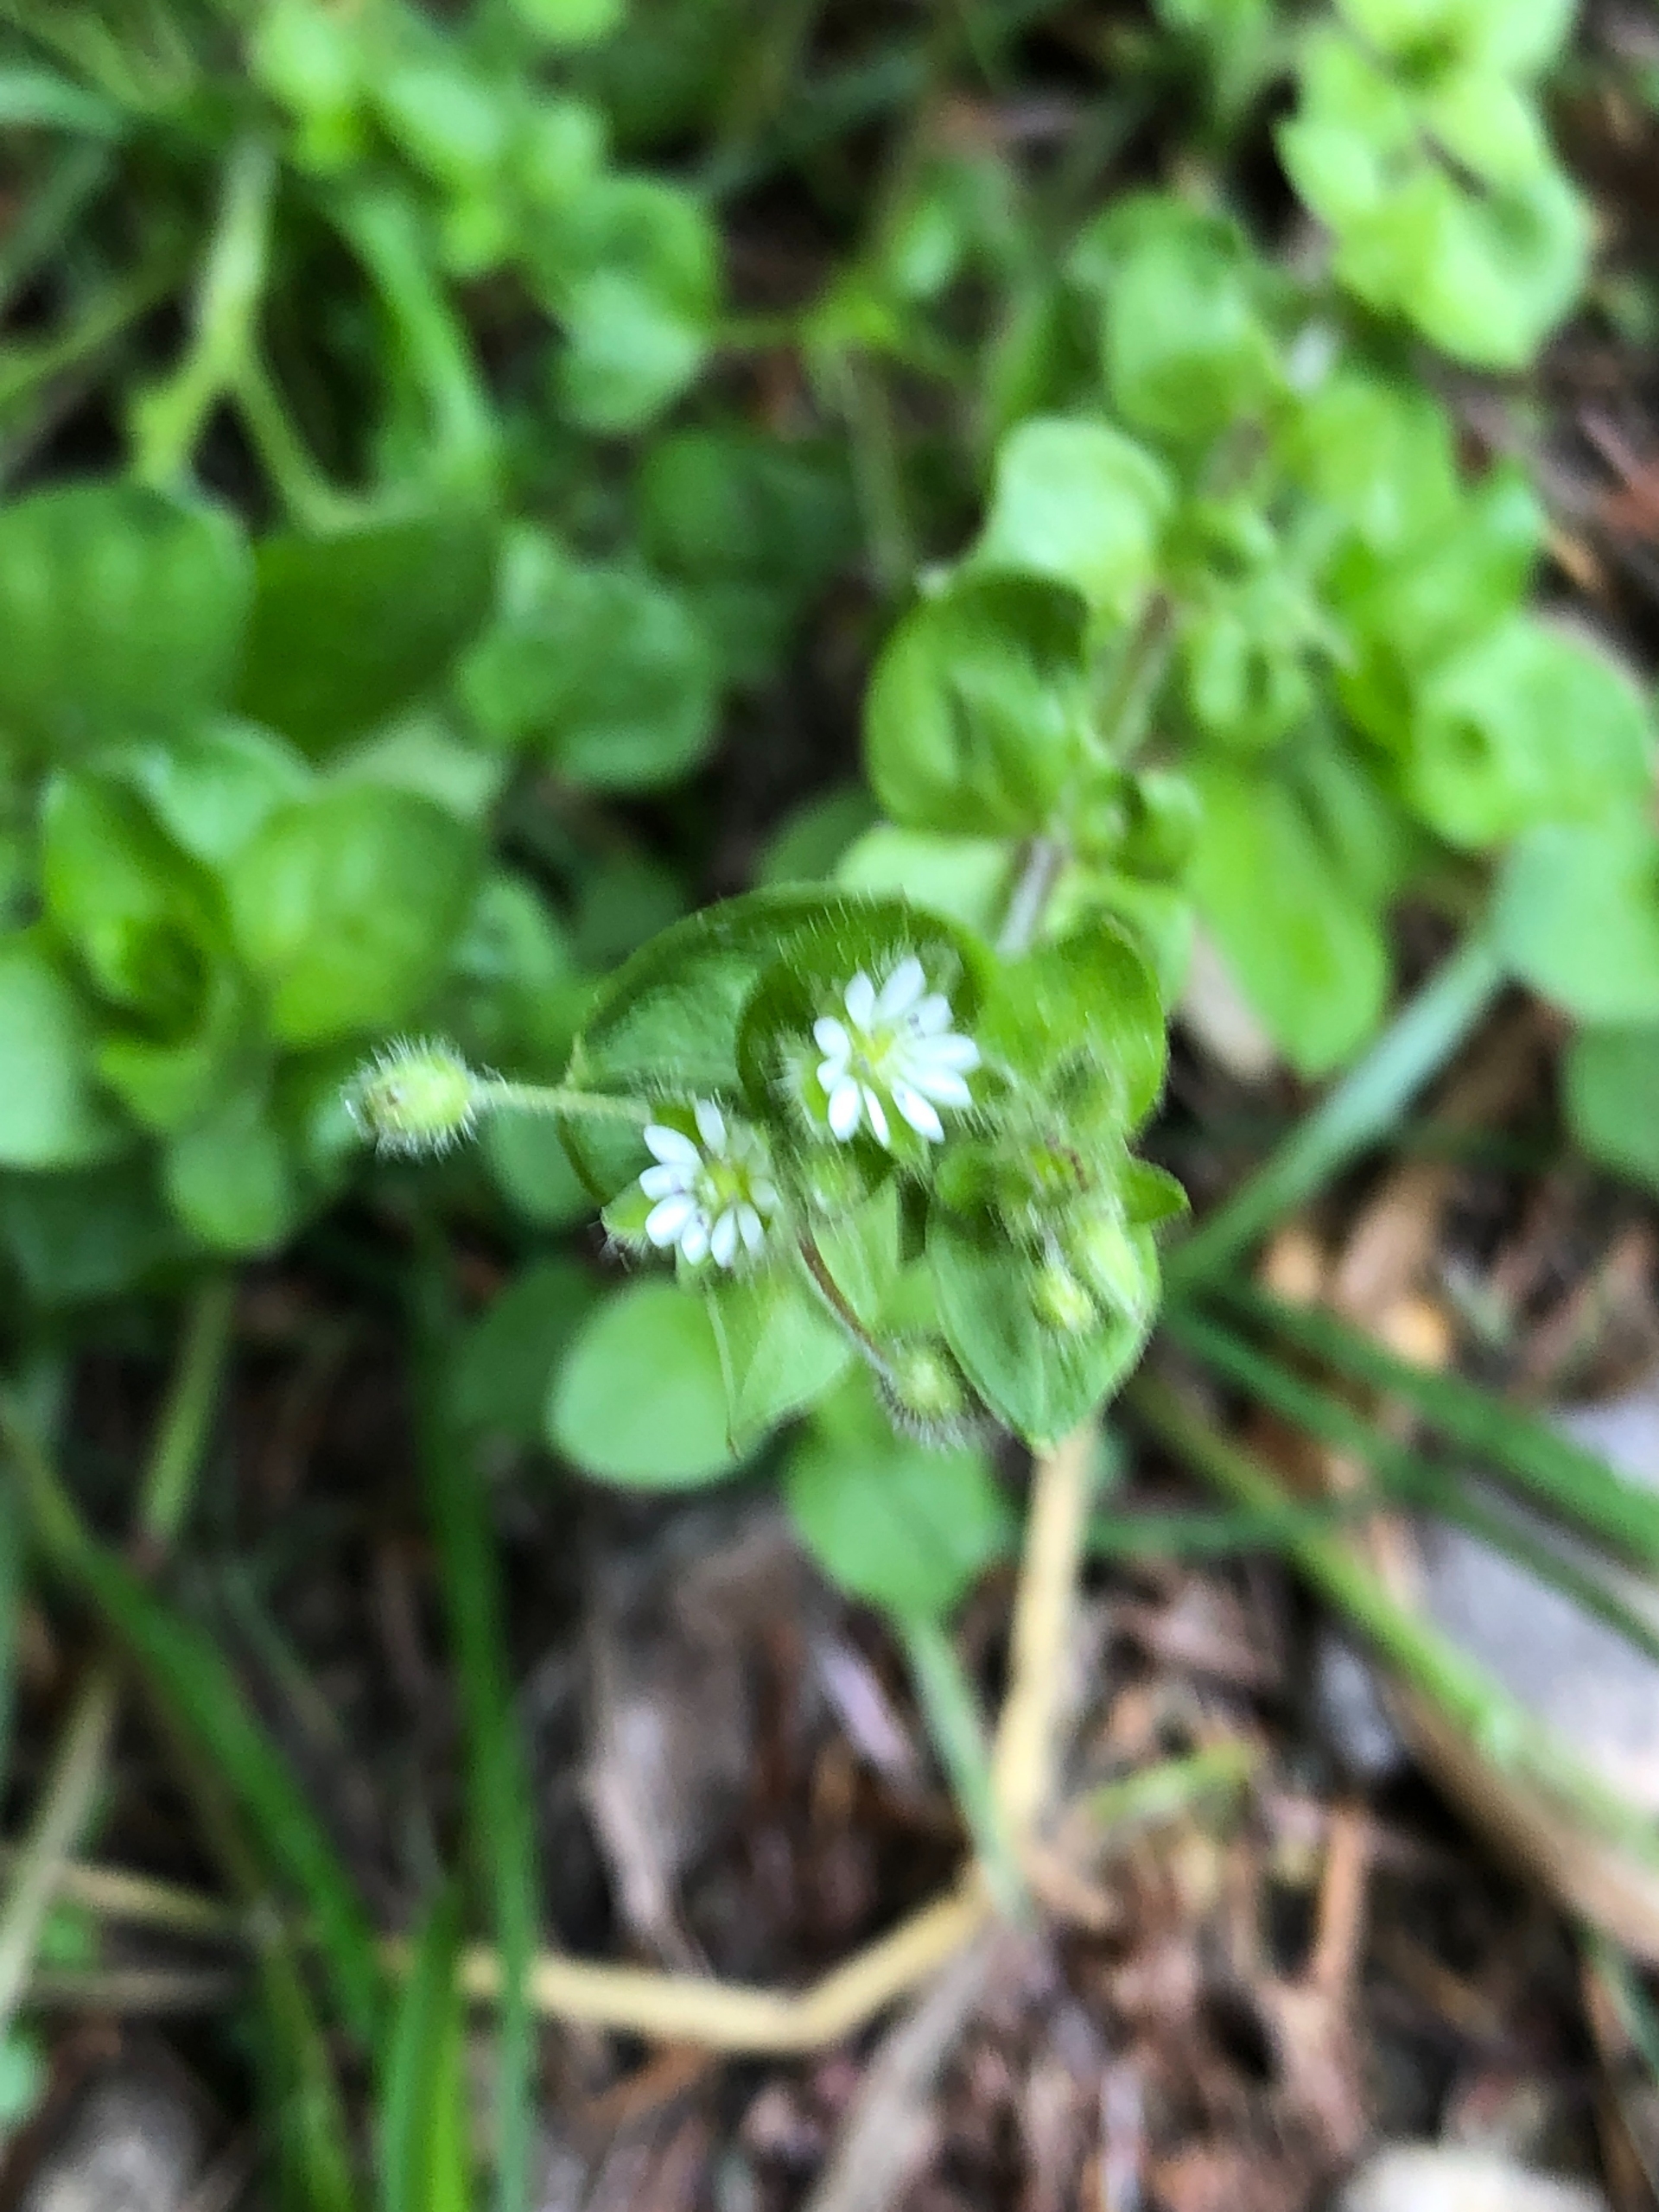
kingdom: Plantae
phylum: Tracheophyta
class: Magnoliopsida
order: Caryophyllales
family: Caryophyllaceae
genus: Stellaria
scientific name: Stellaria media
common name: Almindelig fuglegræs
